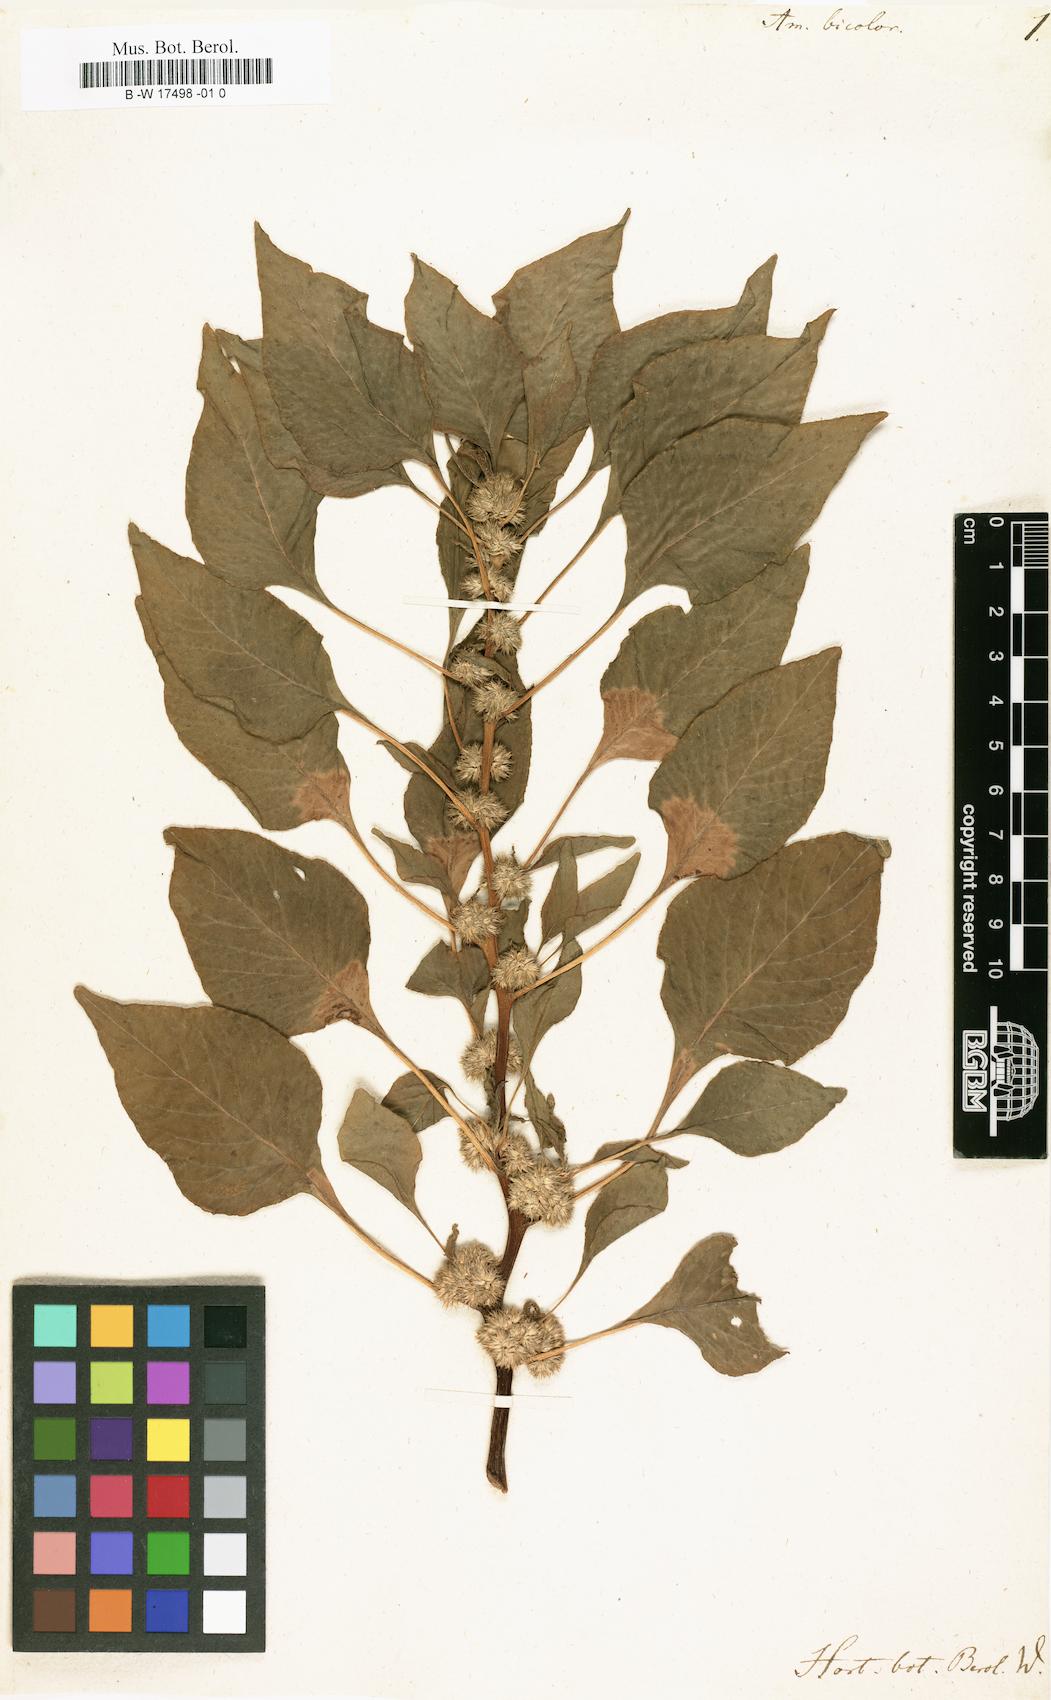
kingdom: Plantae
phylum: Tracheophyta
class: Magnoliopsida
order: Caryophyllales
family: Amaranthaceae
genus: Amaranthus
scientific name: Amaranthus tricolor
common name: Joseph's-coat
